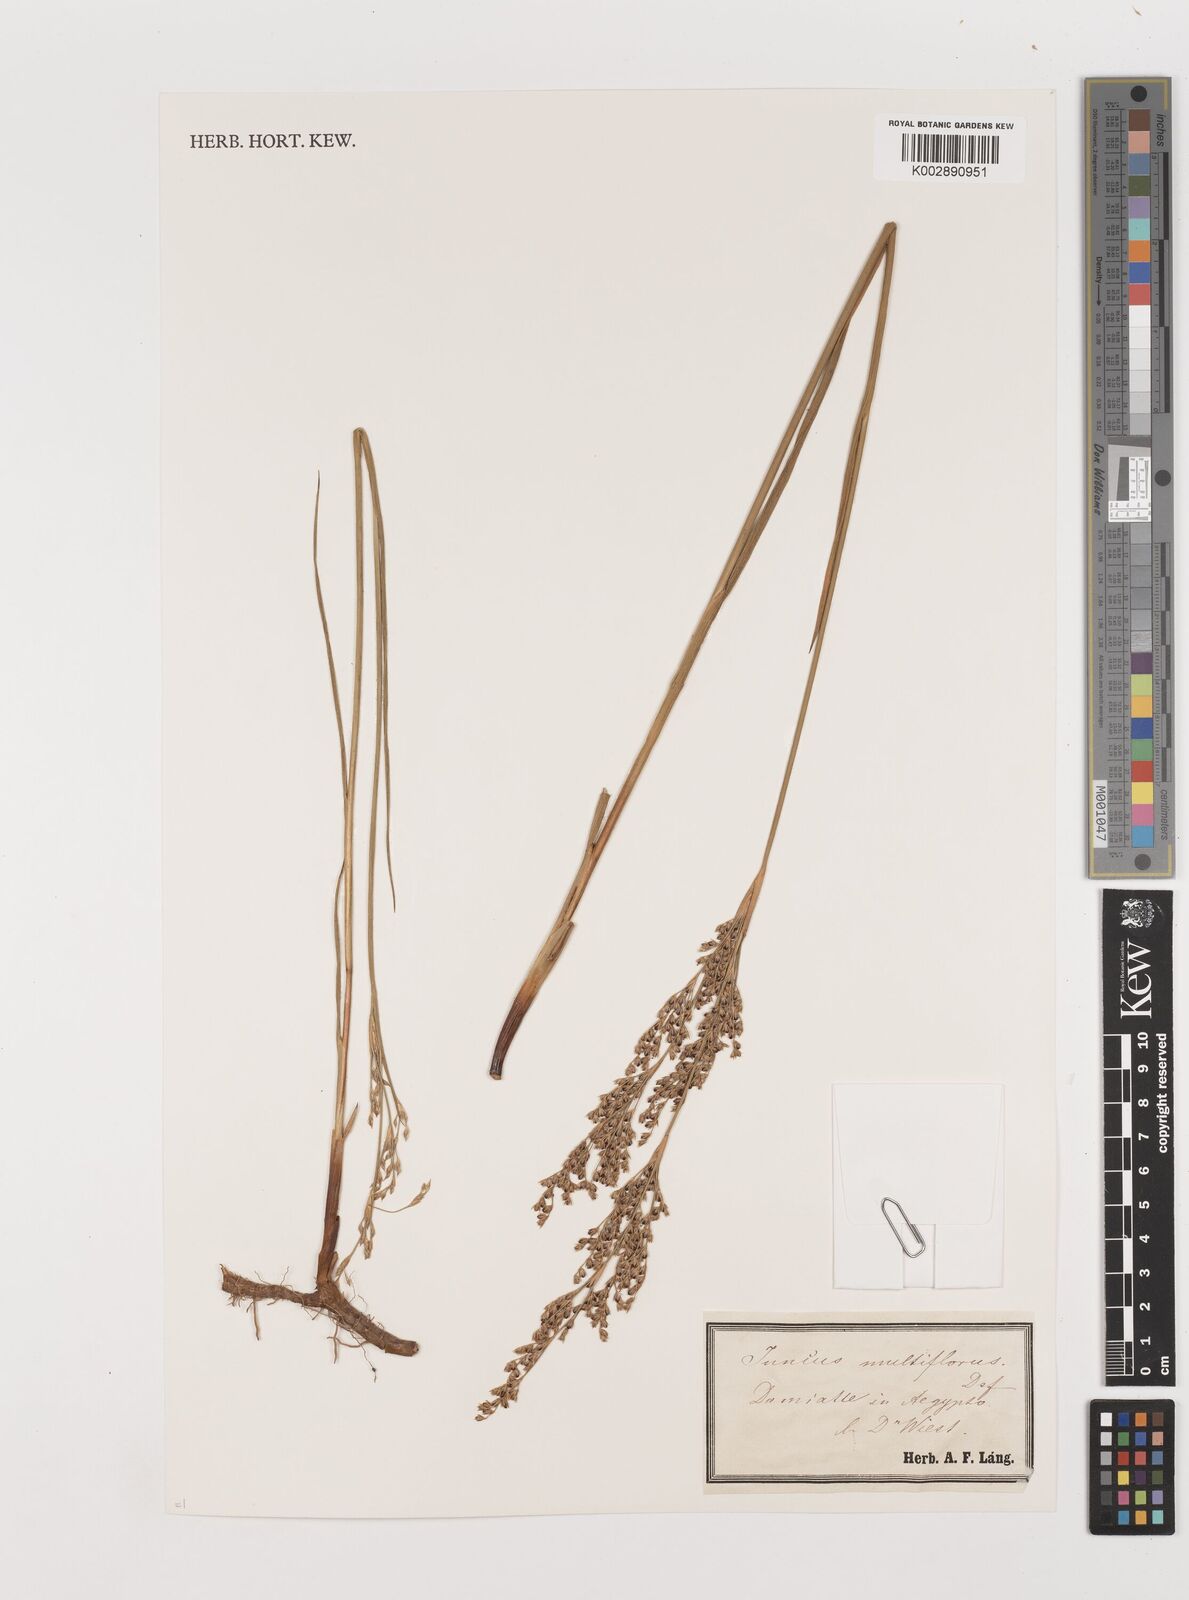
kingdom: Plantae
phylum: Tracheophyta
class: Liliopsida
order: Poales
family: Juncaceae
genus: Juncus
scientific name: Juncus subulatus
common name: Somerset rush
